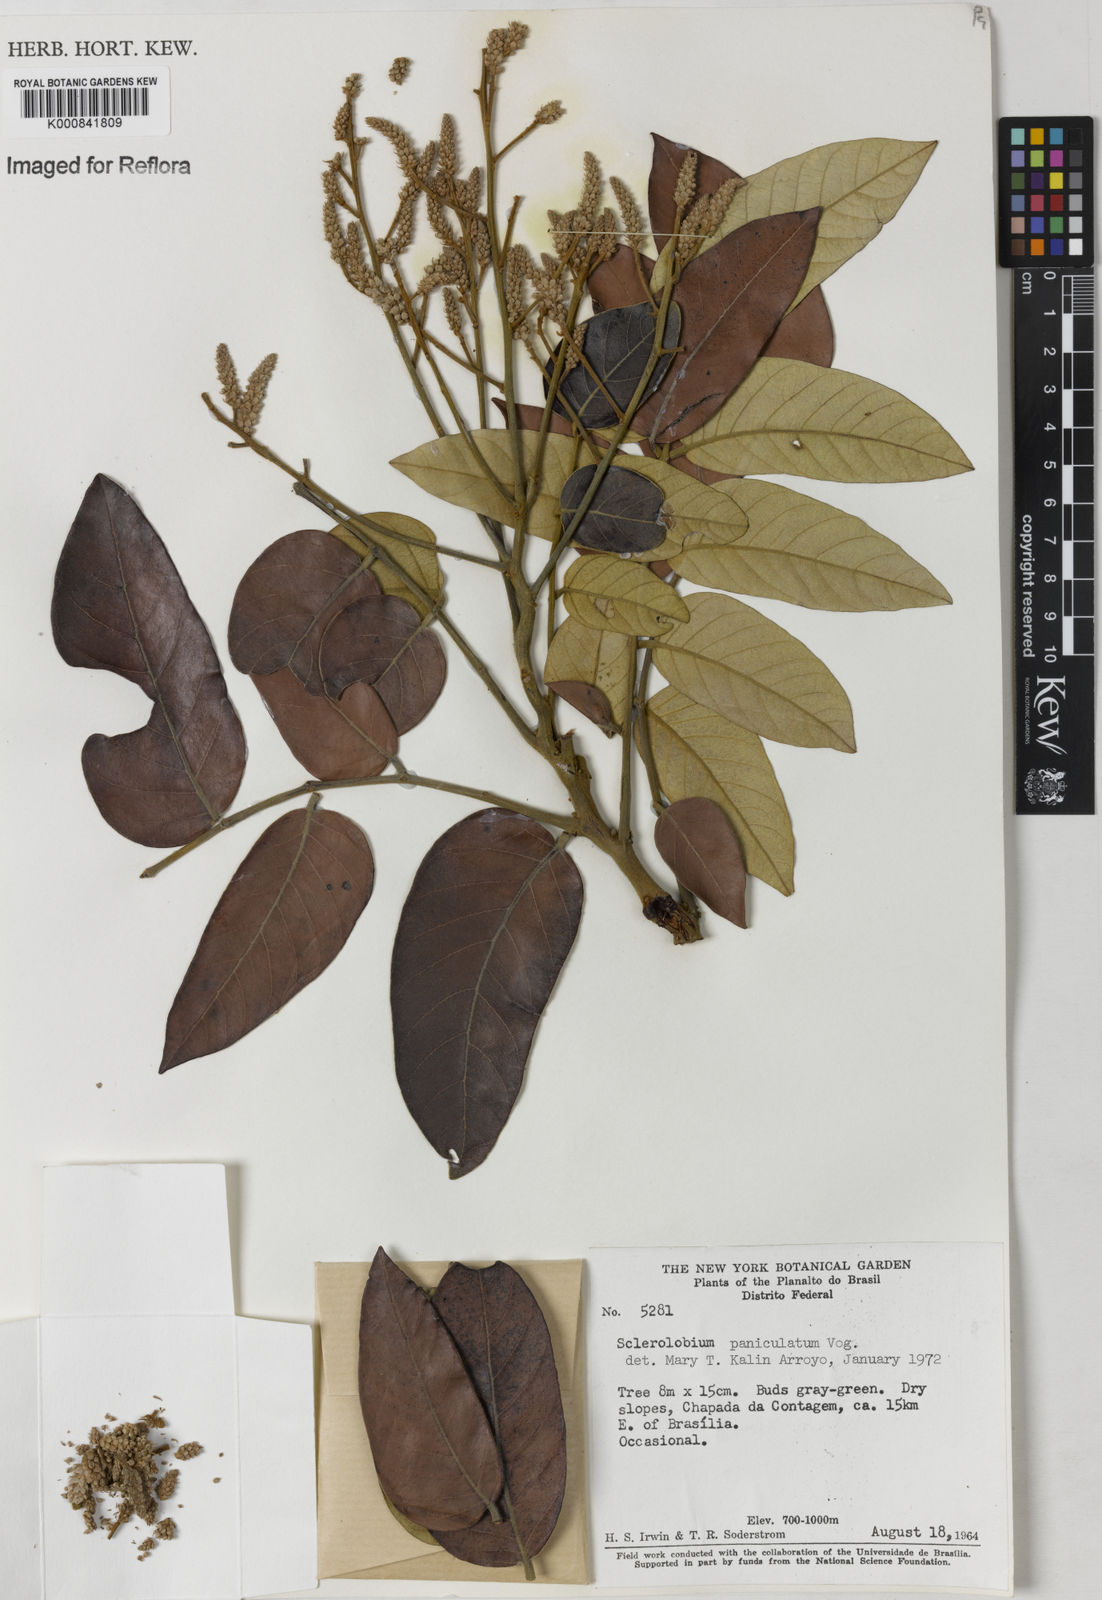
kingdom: Plantae
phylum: Tracheophyta
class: Magnoliopsida
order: Fabales
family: Fabaceae
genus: Tachigali
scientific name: Tachigali subvelutina
